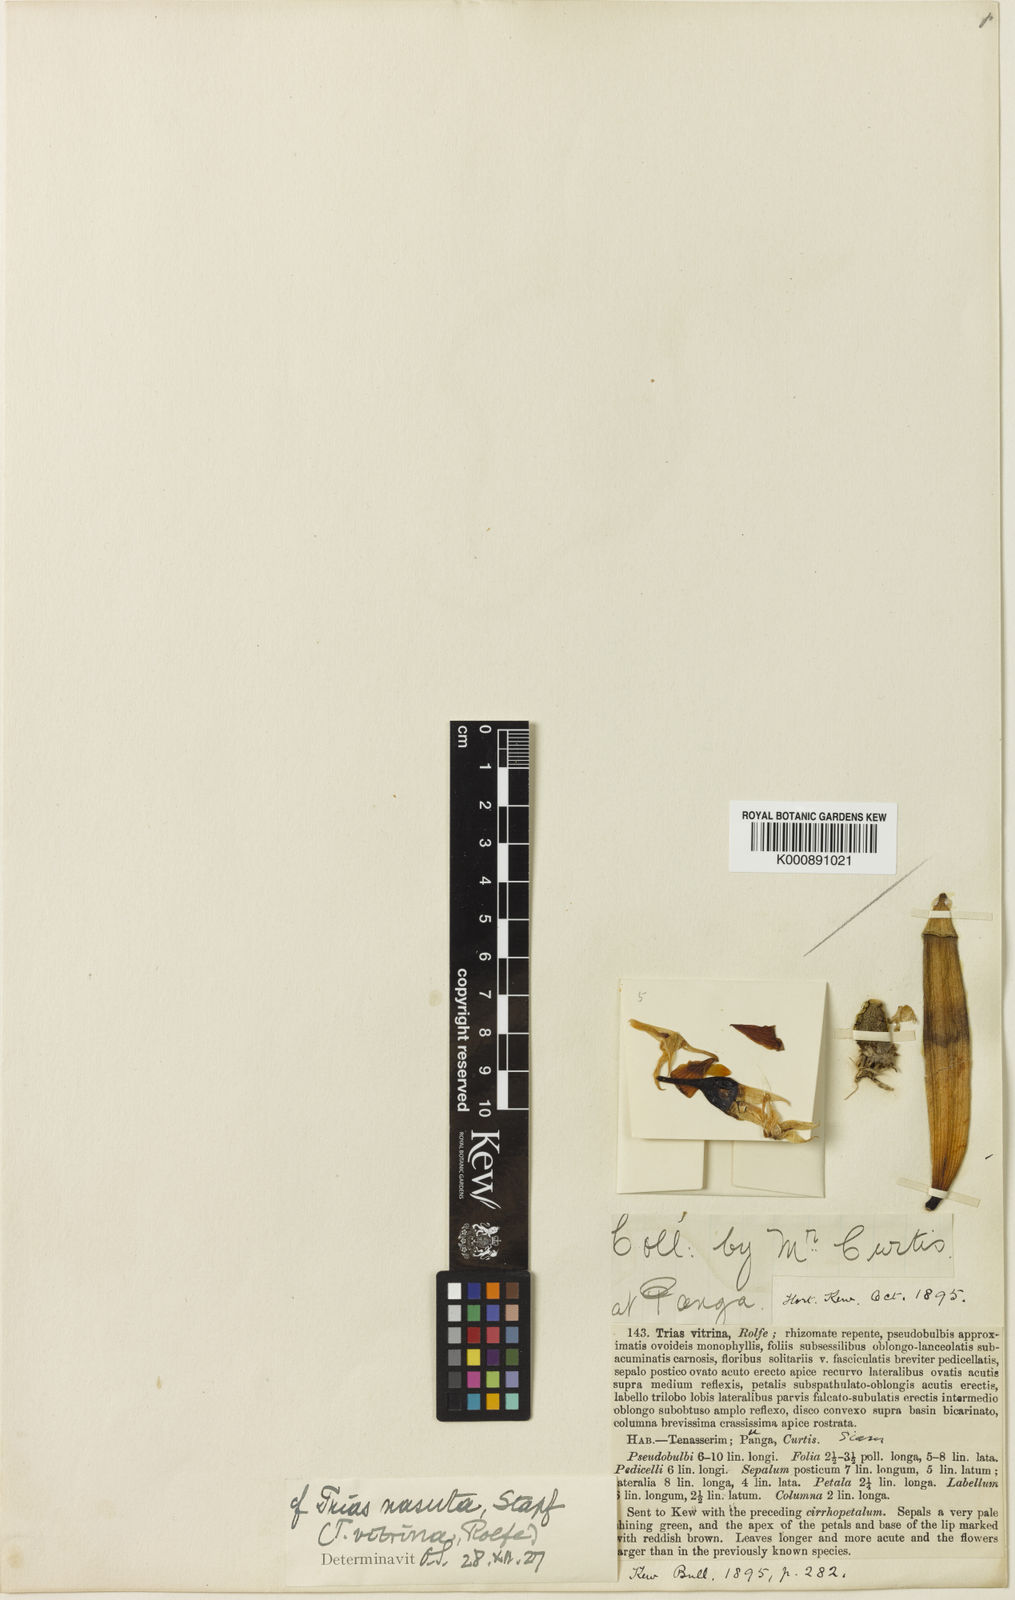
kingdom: Plantae
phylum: Tracheophyta
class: Liliopsida
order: Asparagales
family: Orchidaceae
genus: Bulbophyllum
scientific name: Bulbophyllum nasutum
